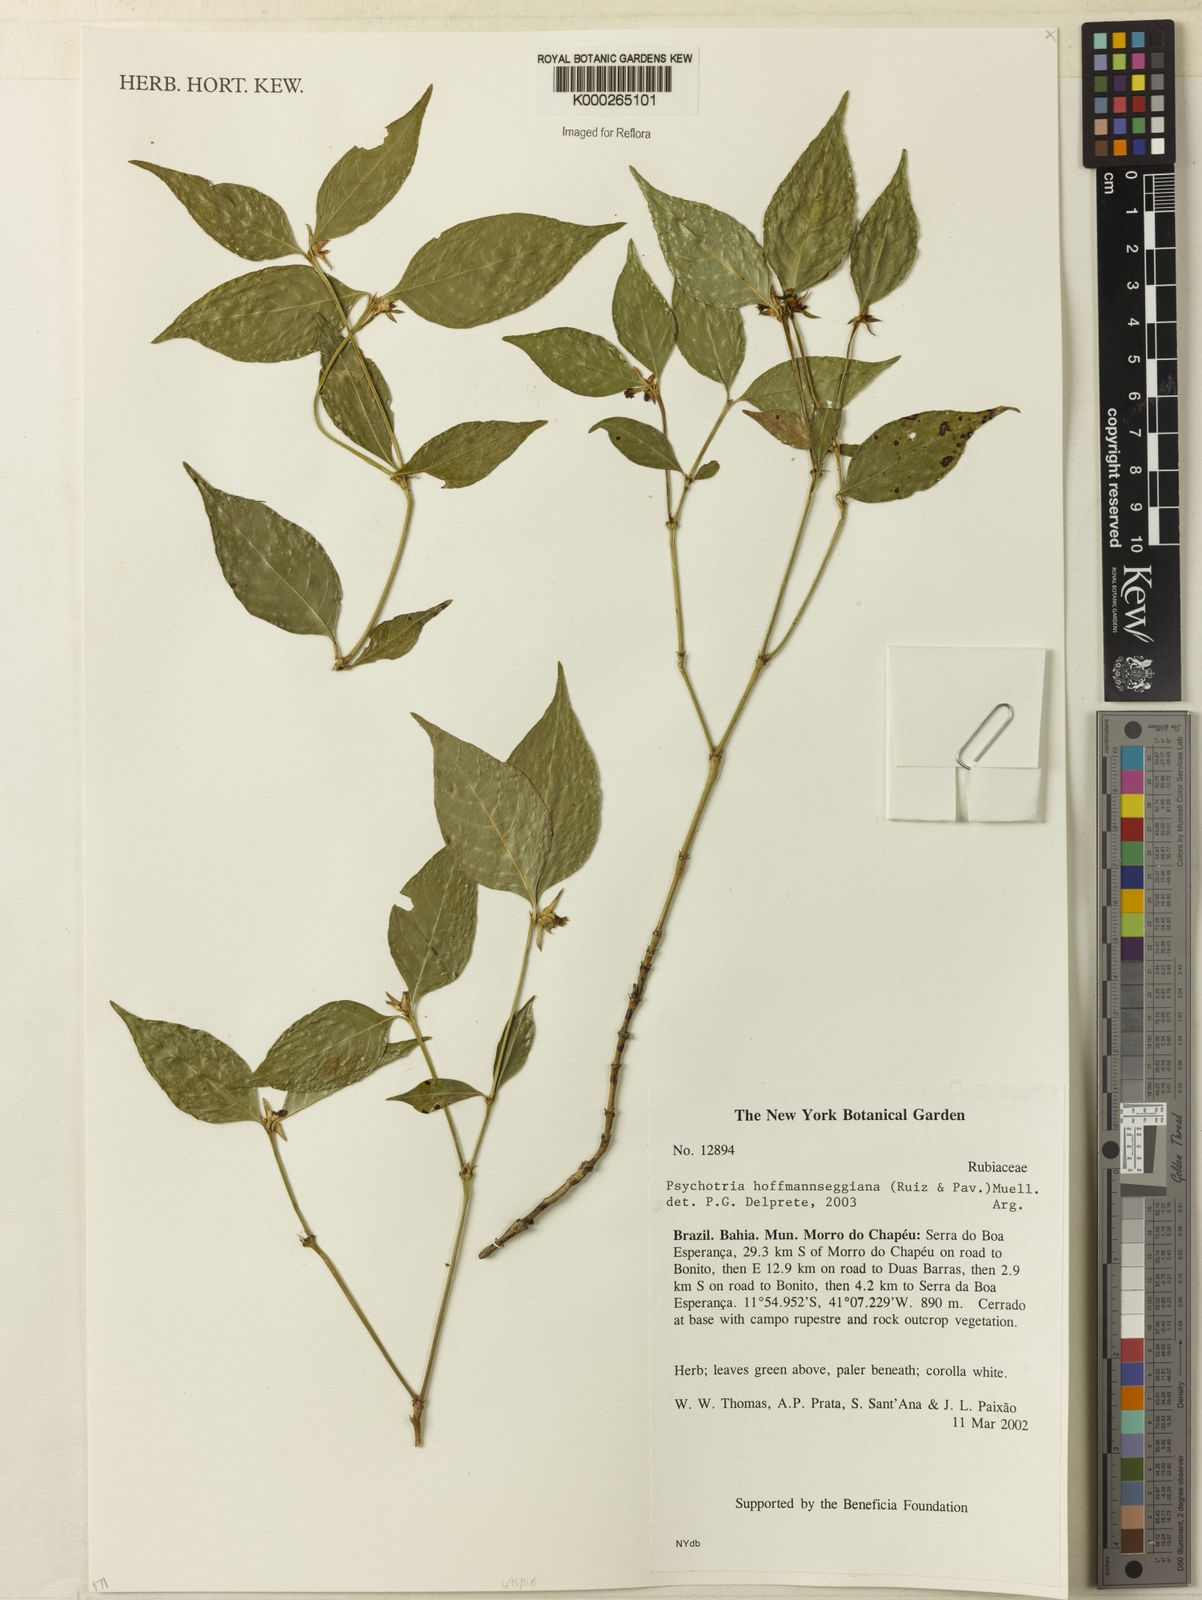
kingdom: Plantae
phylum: Tracheophyta
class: Magnoliopsida
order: Gentianales
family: Rubiaceae
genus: Psychotria
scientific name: Psychotria
